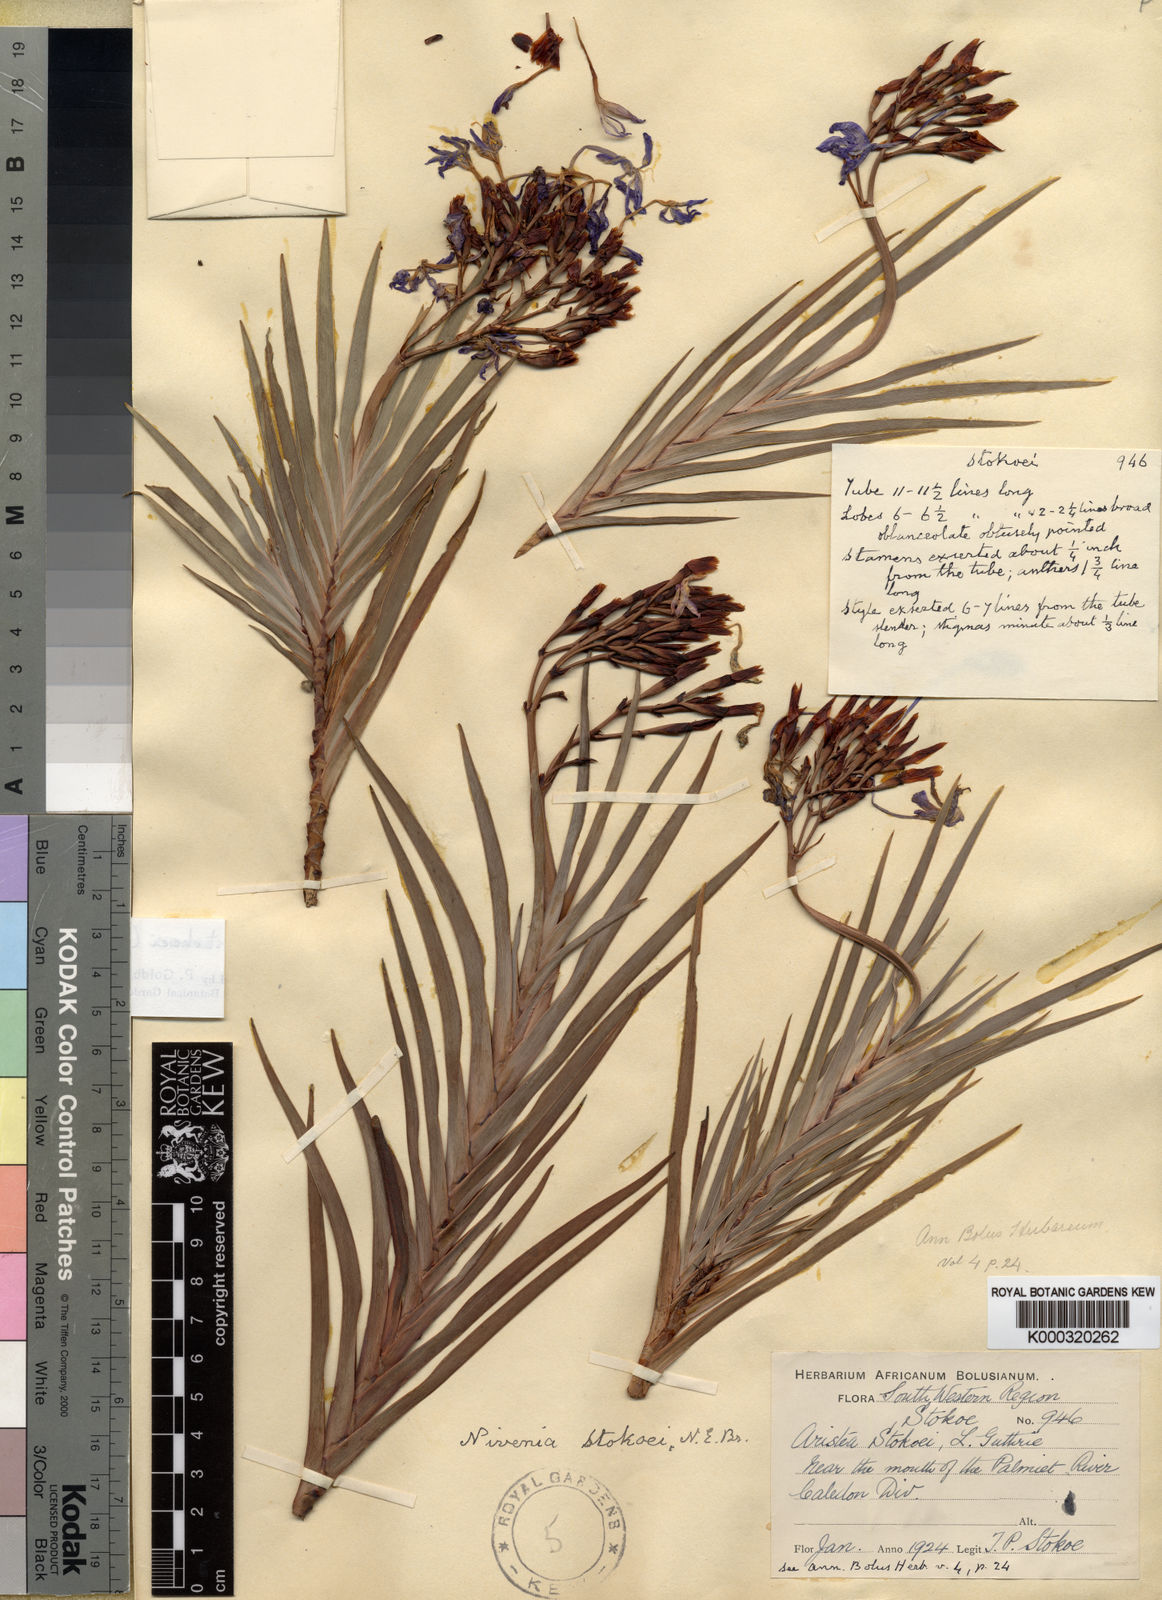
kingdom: Plantae
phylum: Tracheophyta
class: Liliopsida
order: Asparagales
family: Iridaceae
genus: Nivenia
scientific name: Nivenia stokoei
